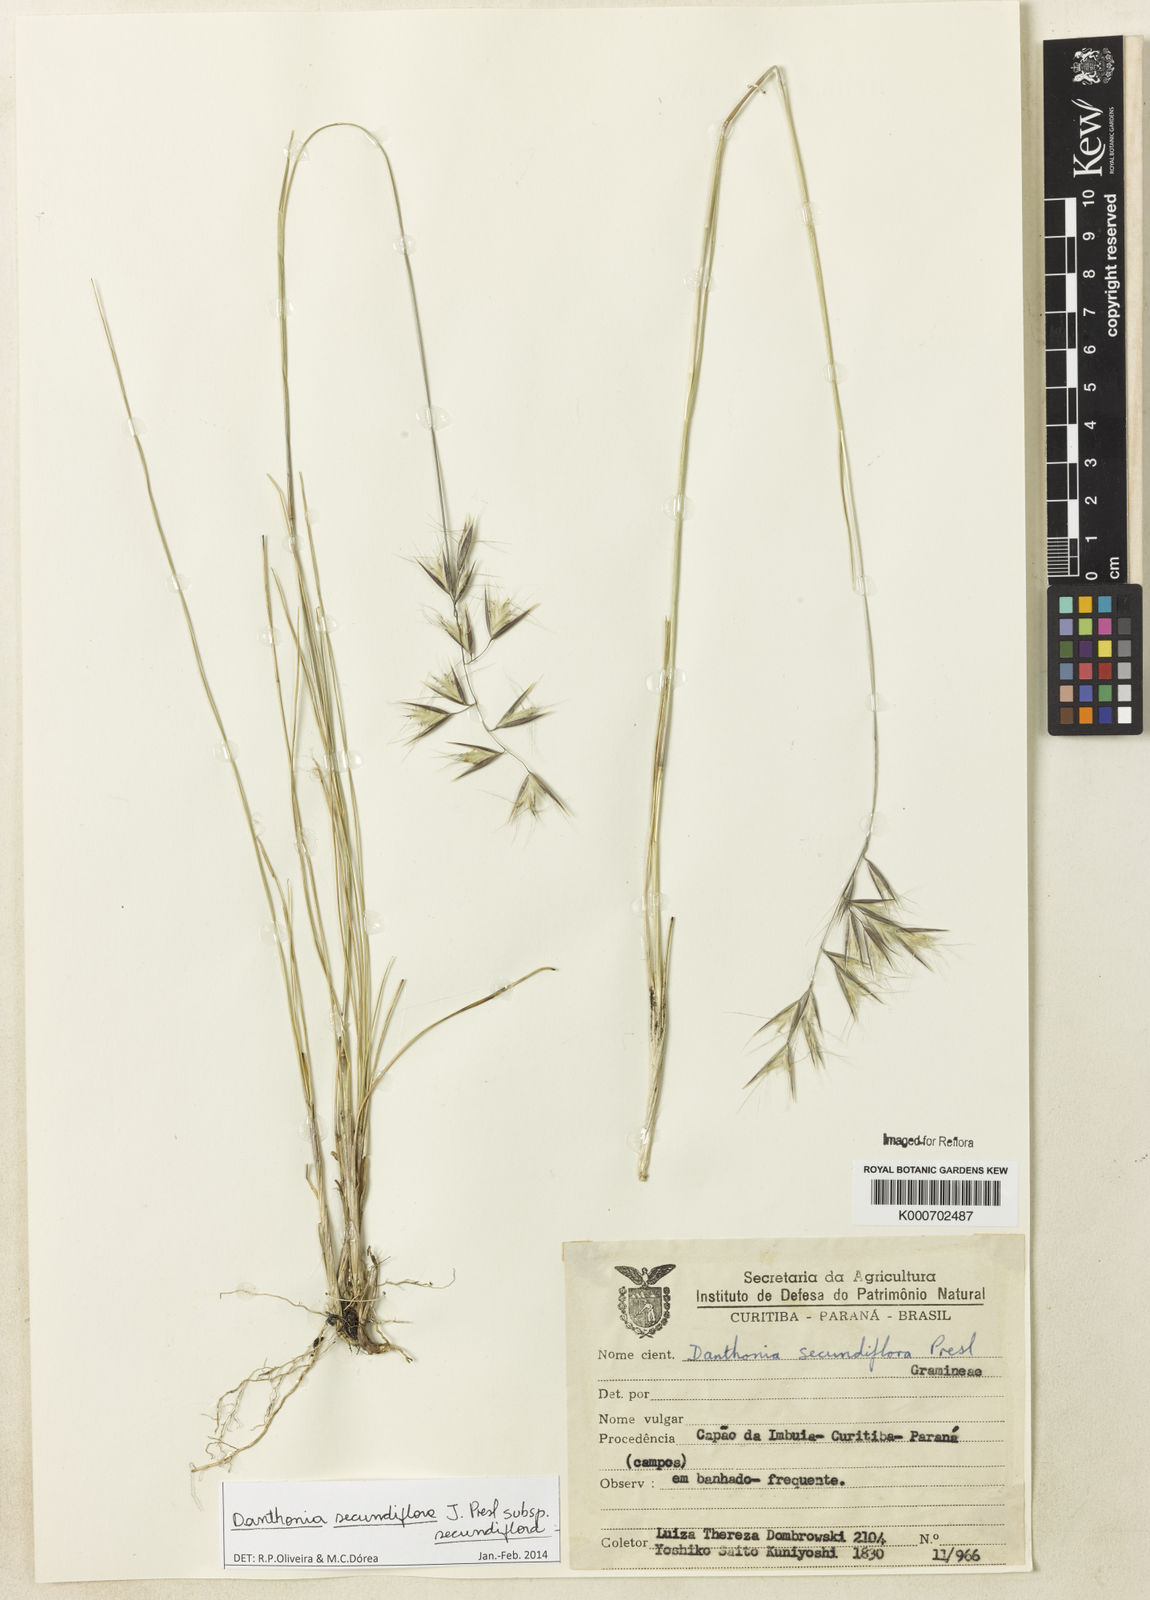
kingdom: Plantae
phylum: Tracheophyta
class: Liliopsida
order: Poales
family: Poaceae
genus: Danthonia
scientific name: Danthonia secundiflora
